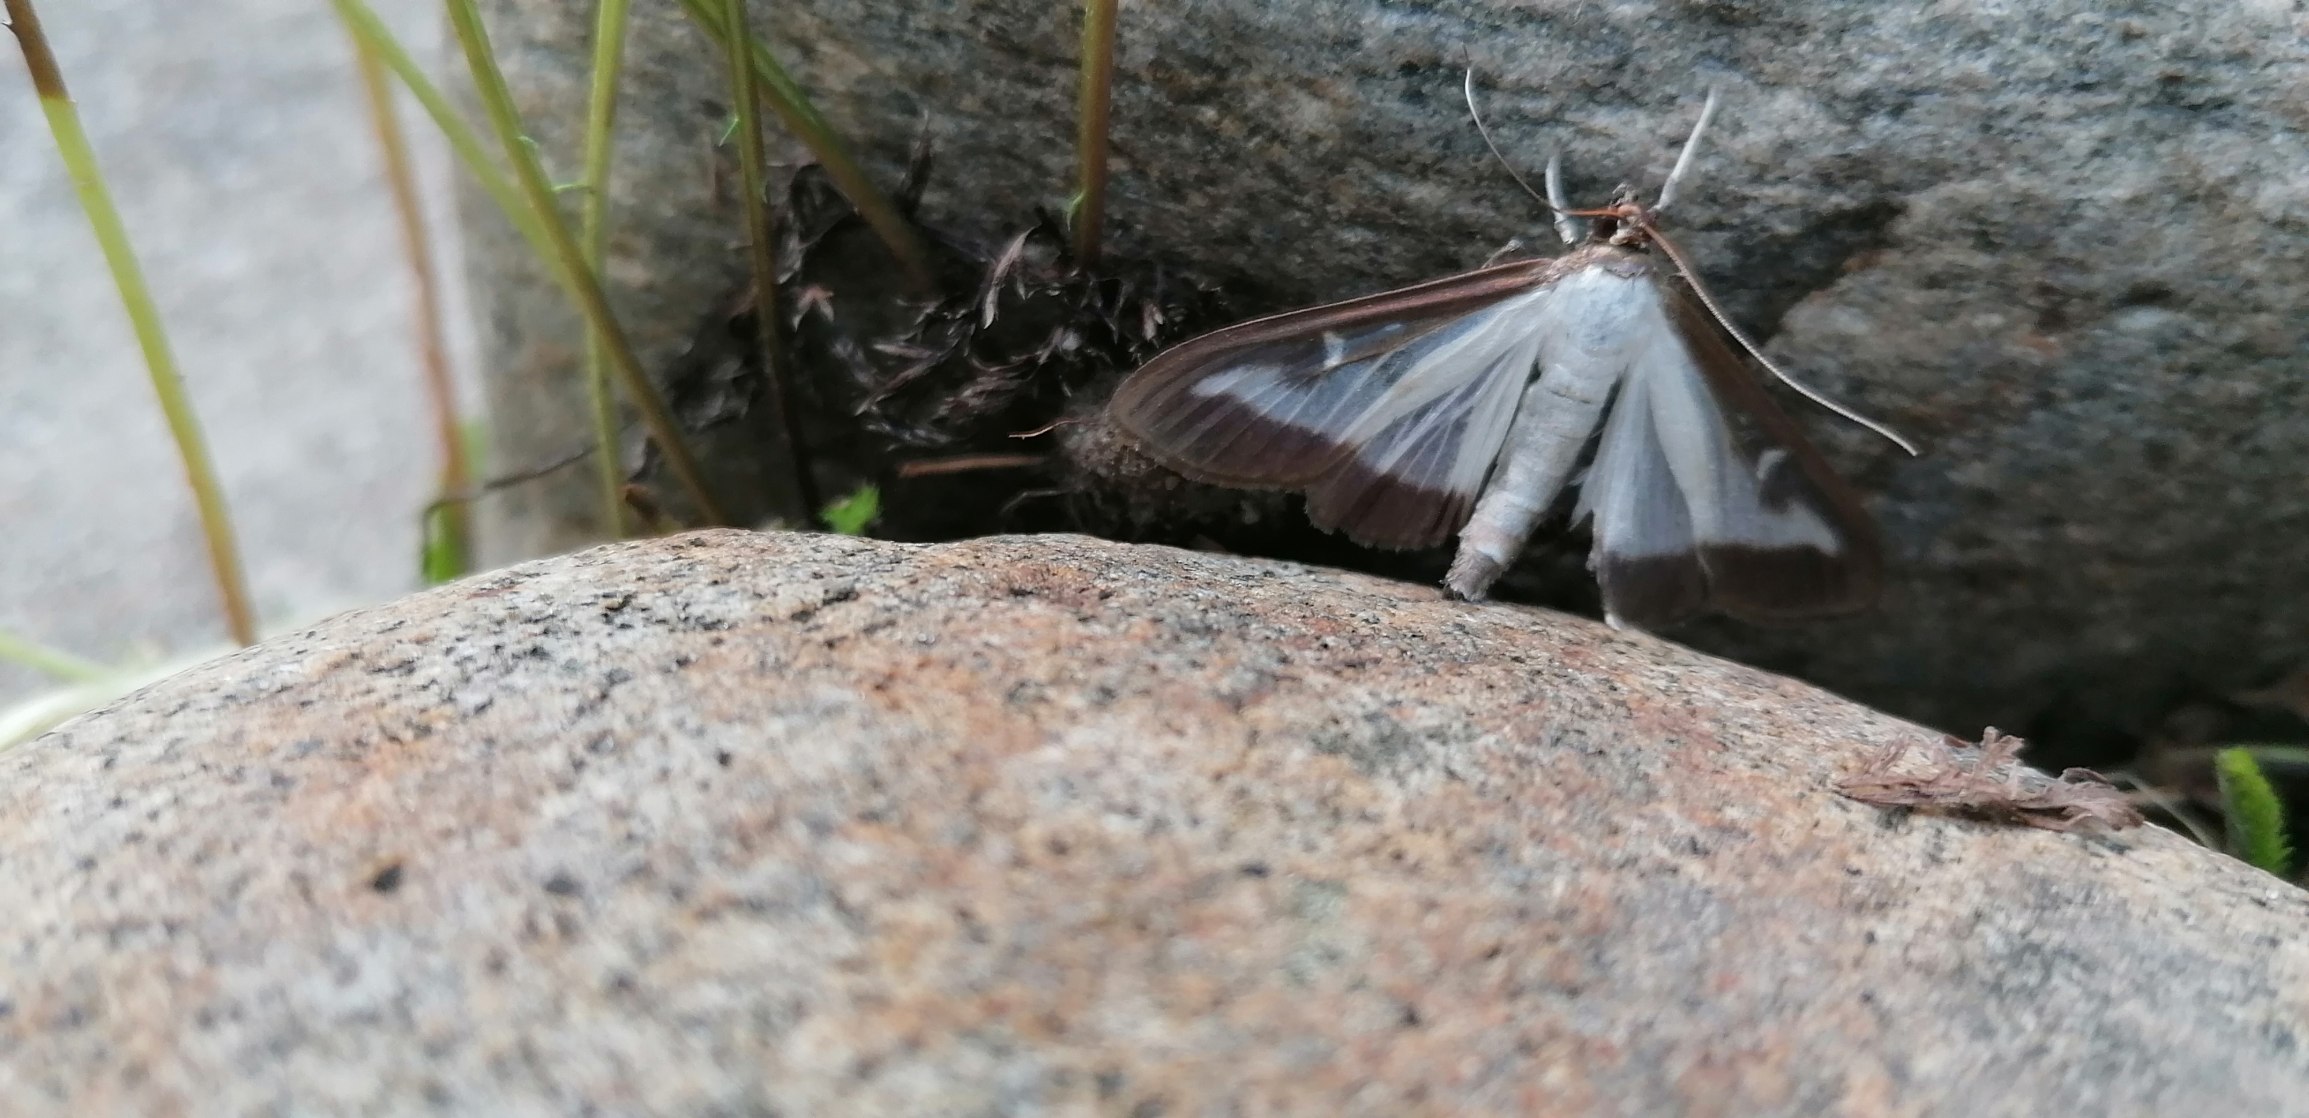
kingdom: Animalia
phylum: Arthropoda
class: Insecta
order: Lepidoptera
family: Crambidae
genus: Cydalima
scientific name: Cydalima perspectalis
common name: Buksbomhalvmøl
